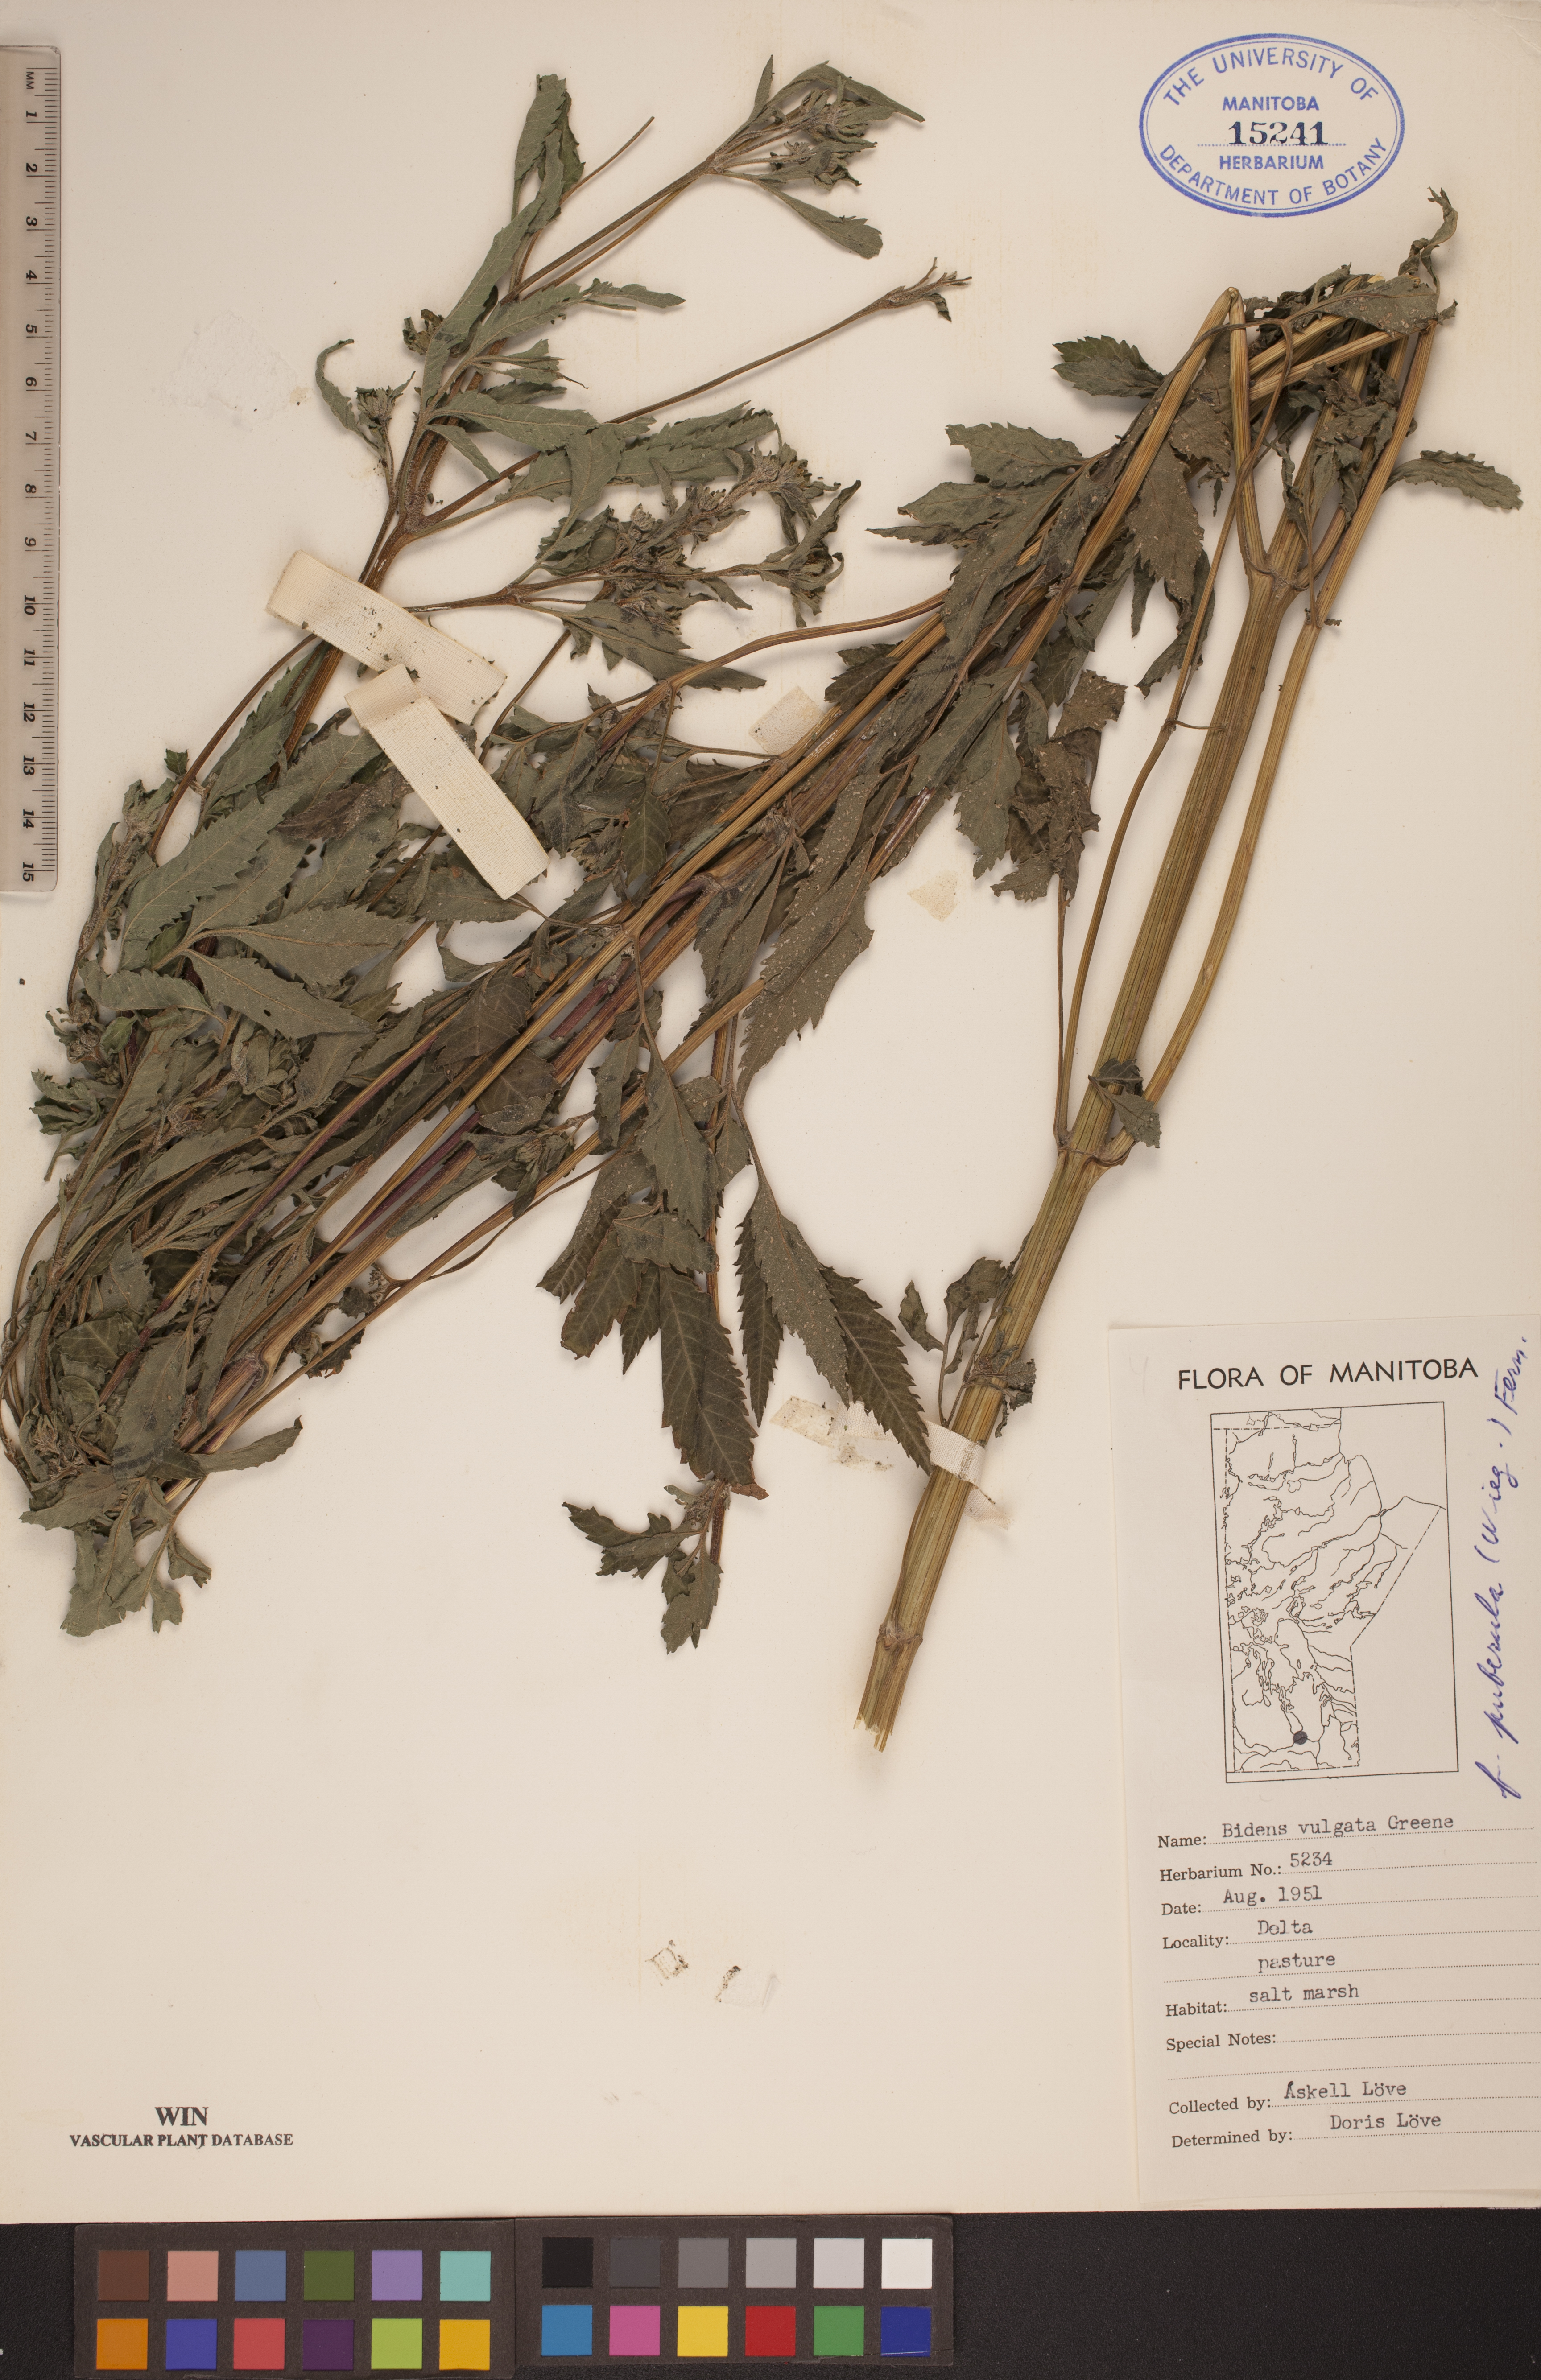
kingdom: Plantae
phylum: Tracheophyta
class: Magnoliopsida
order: Asterales
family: Asteraceae
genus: Bidens
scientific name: Bidens vulgata
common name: Tall beggarticks
